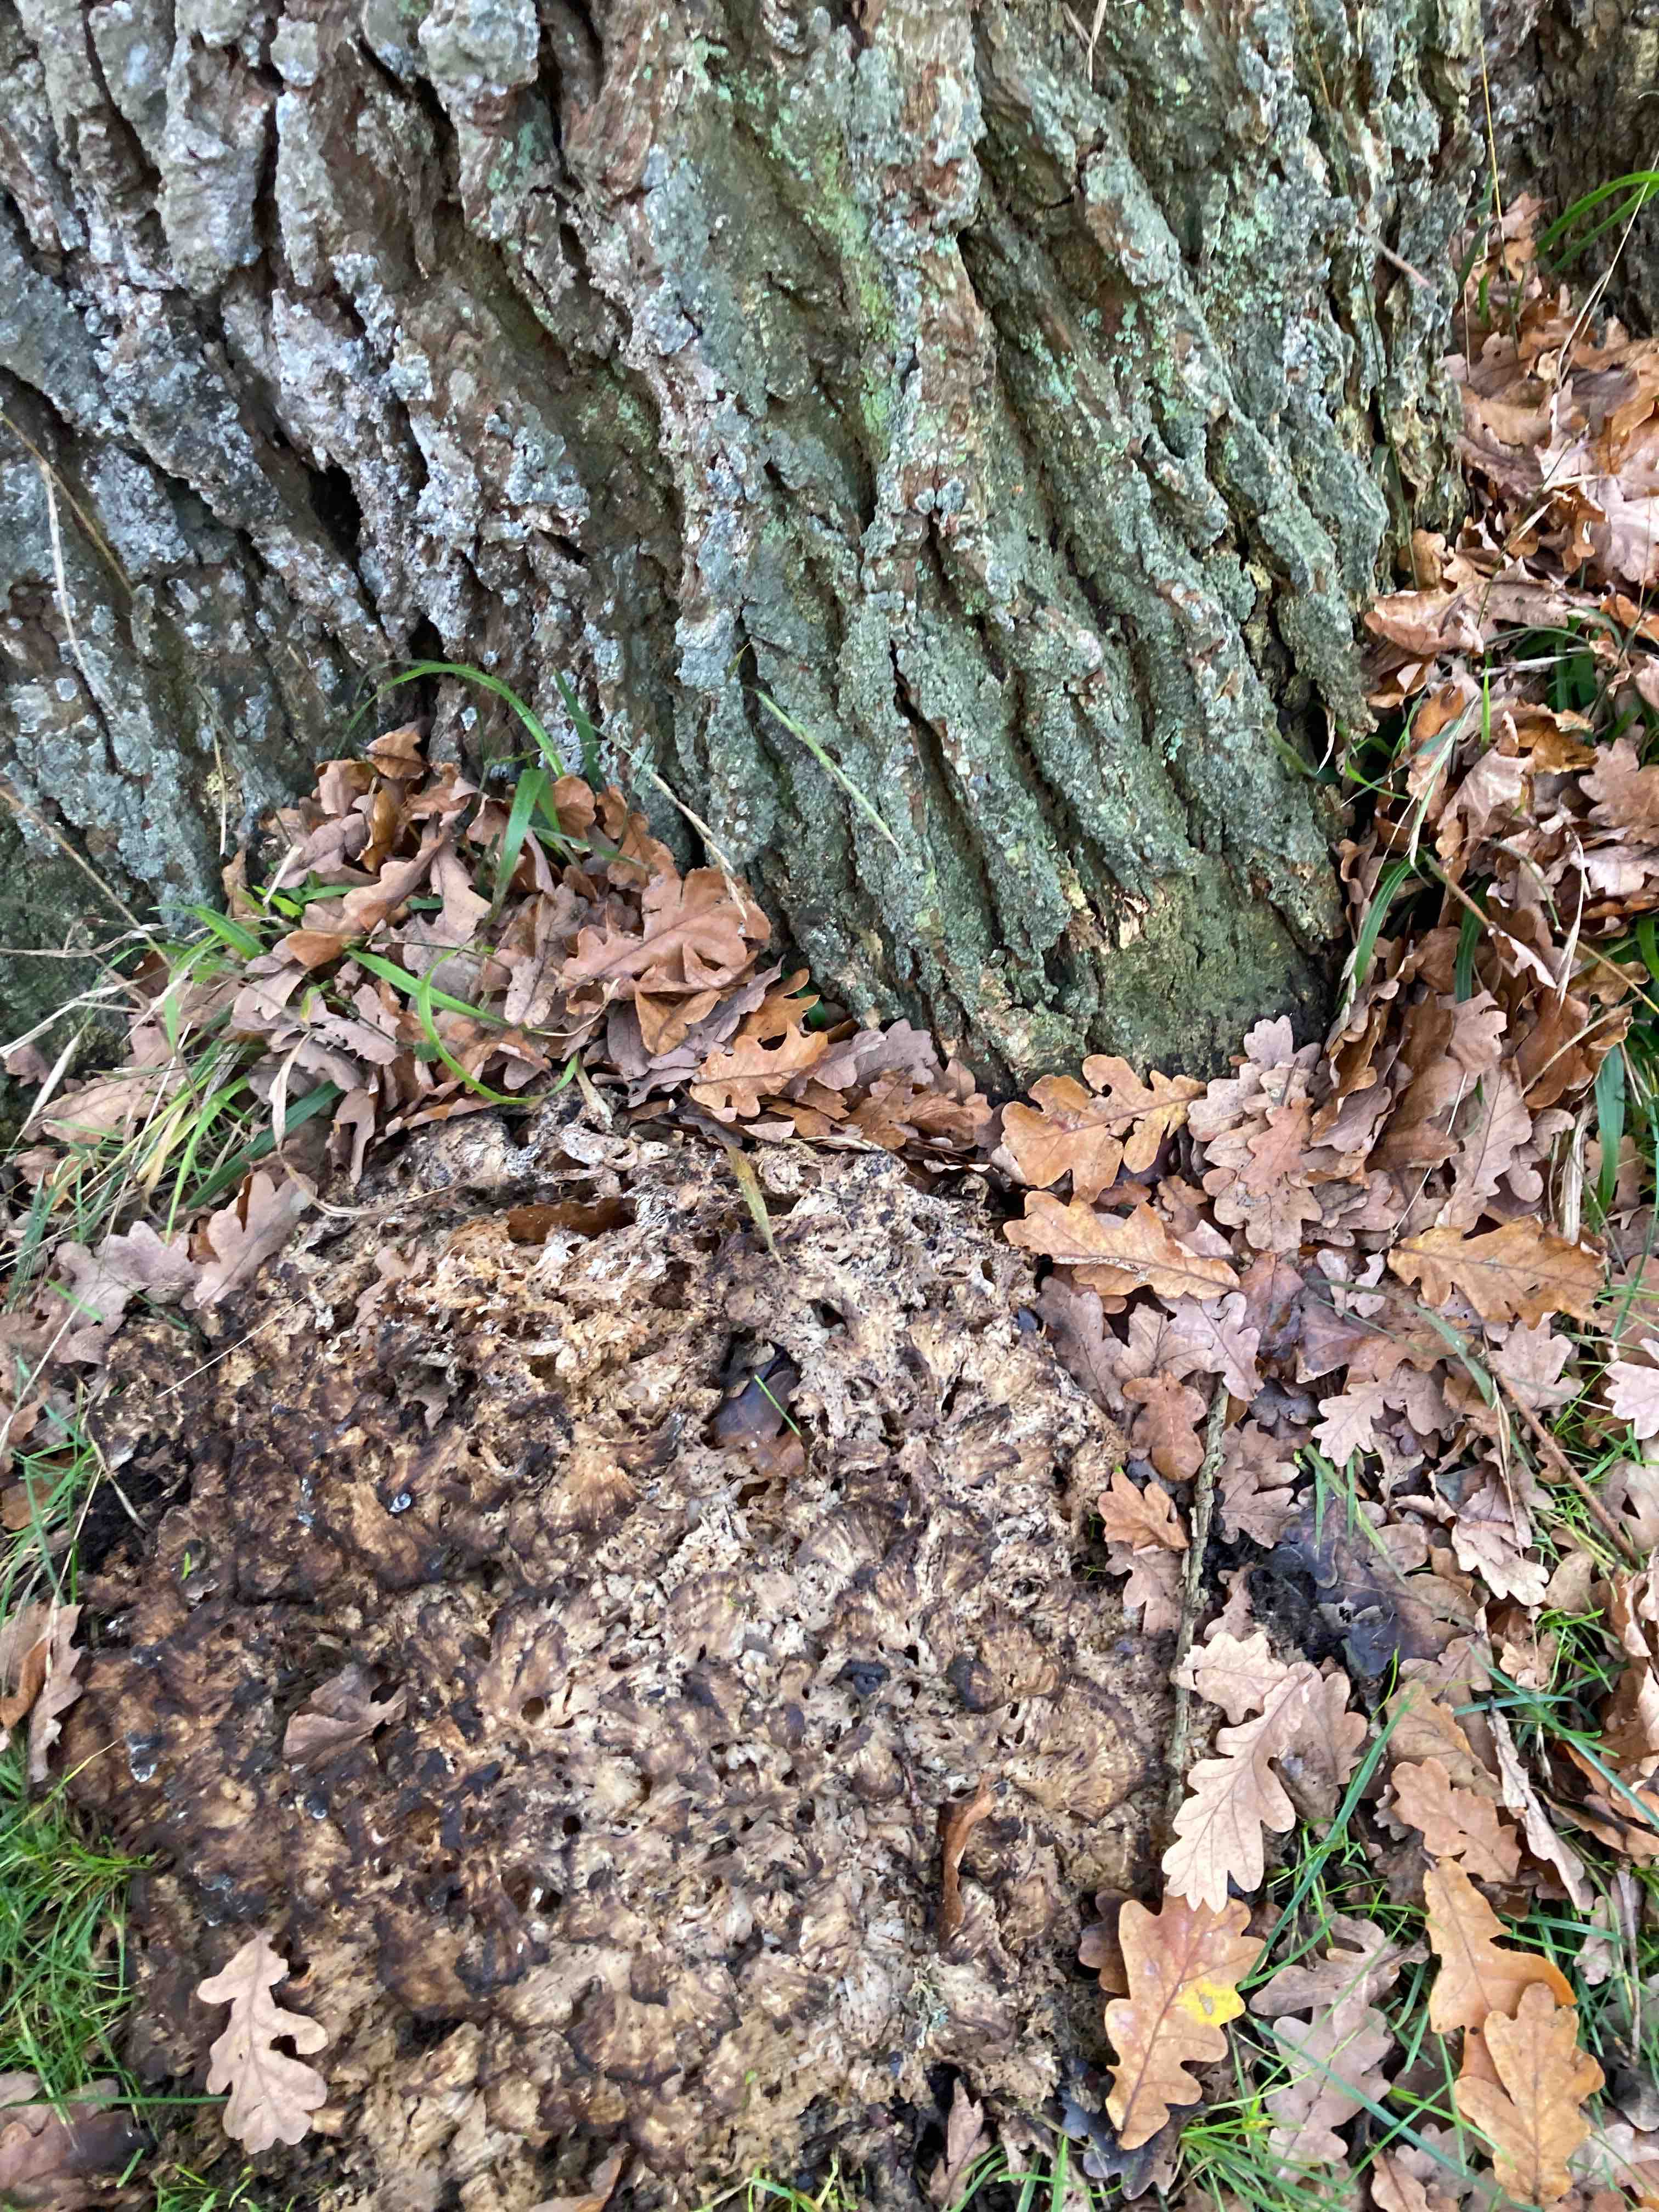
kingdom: Fungi
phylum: Basidiomycota
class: Agaricomycetes
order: Polyporales
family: Grifolaceae
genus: Grifola
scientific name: Grifola frondosa
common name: tueporesvamp
